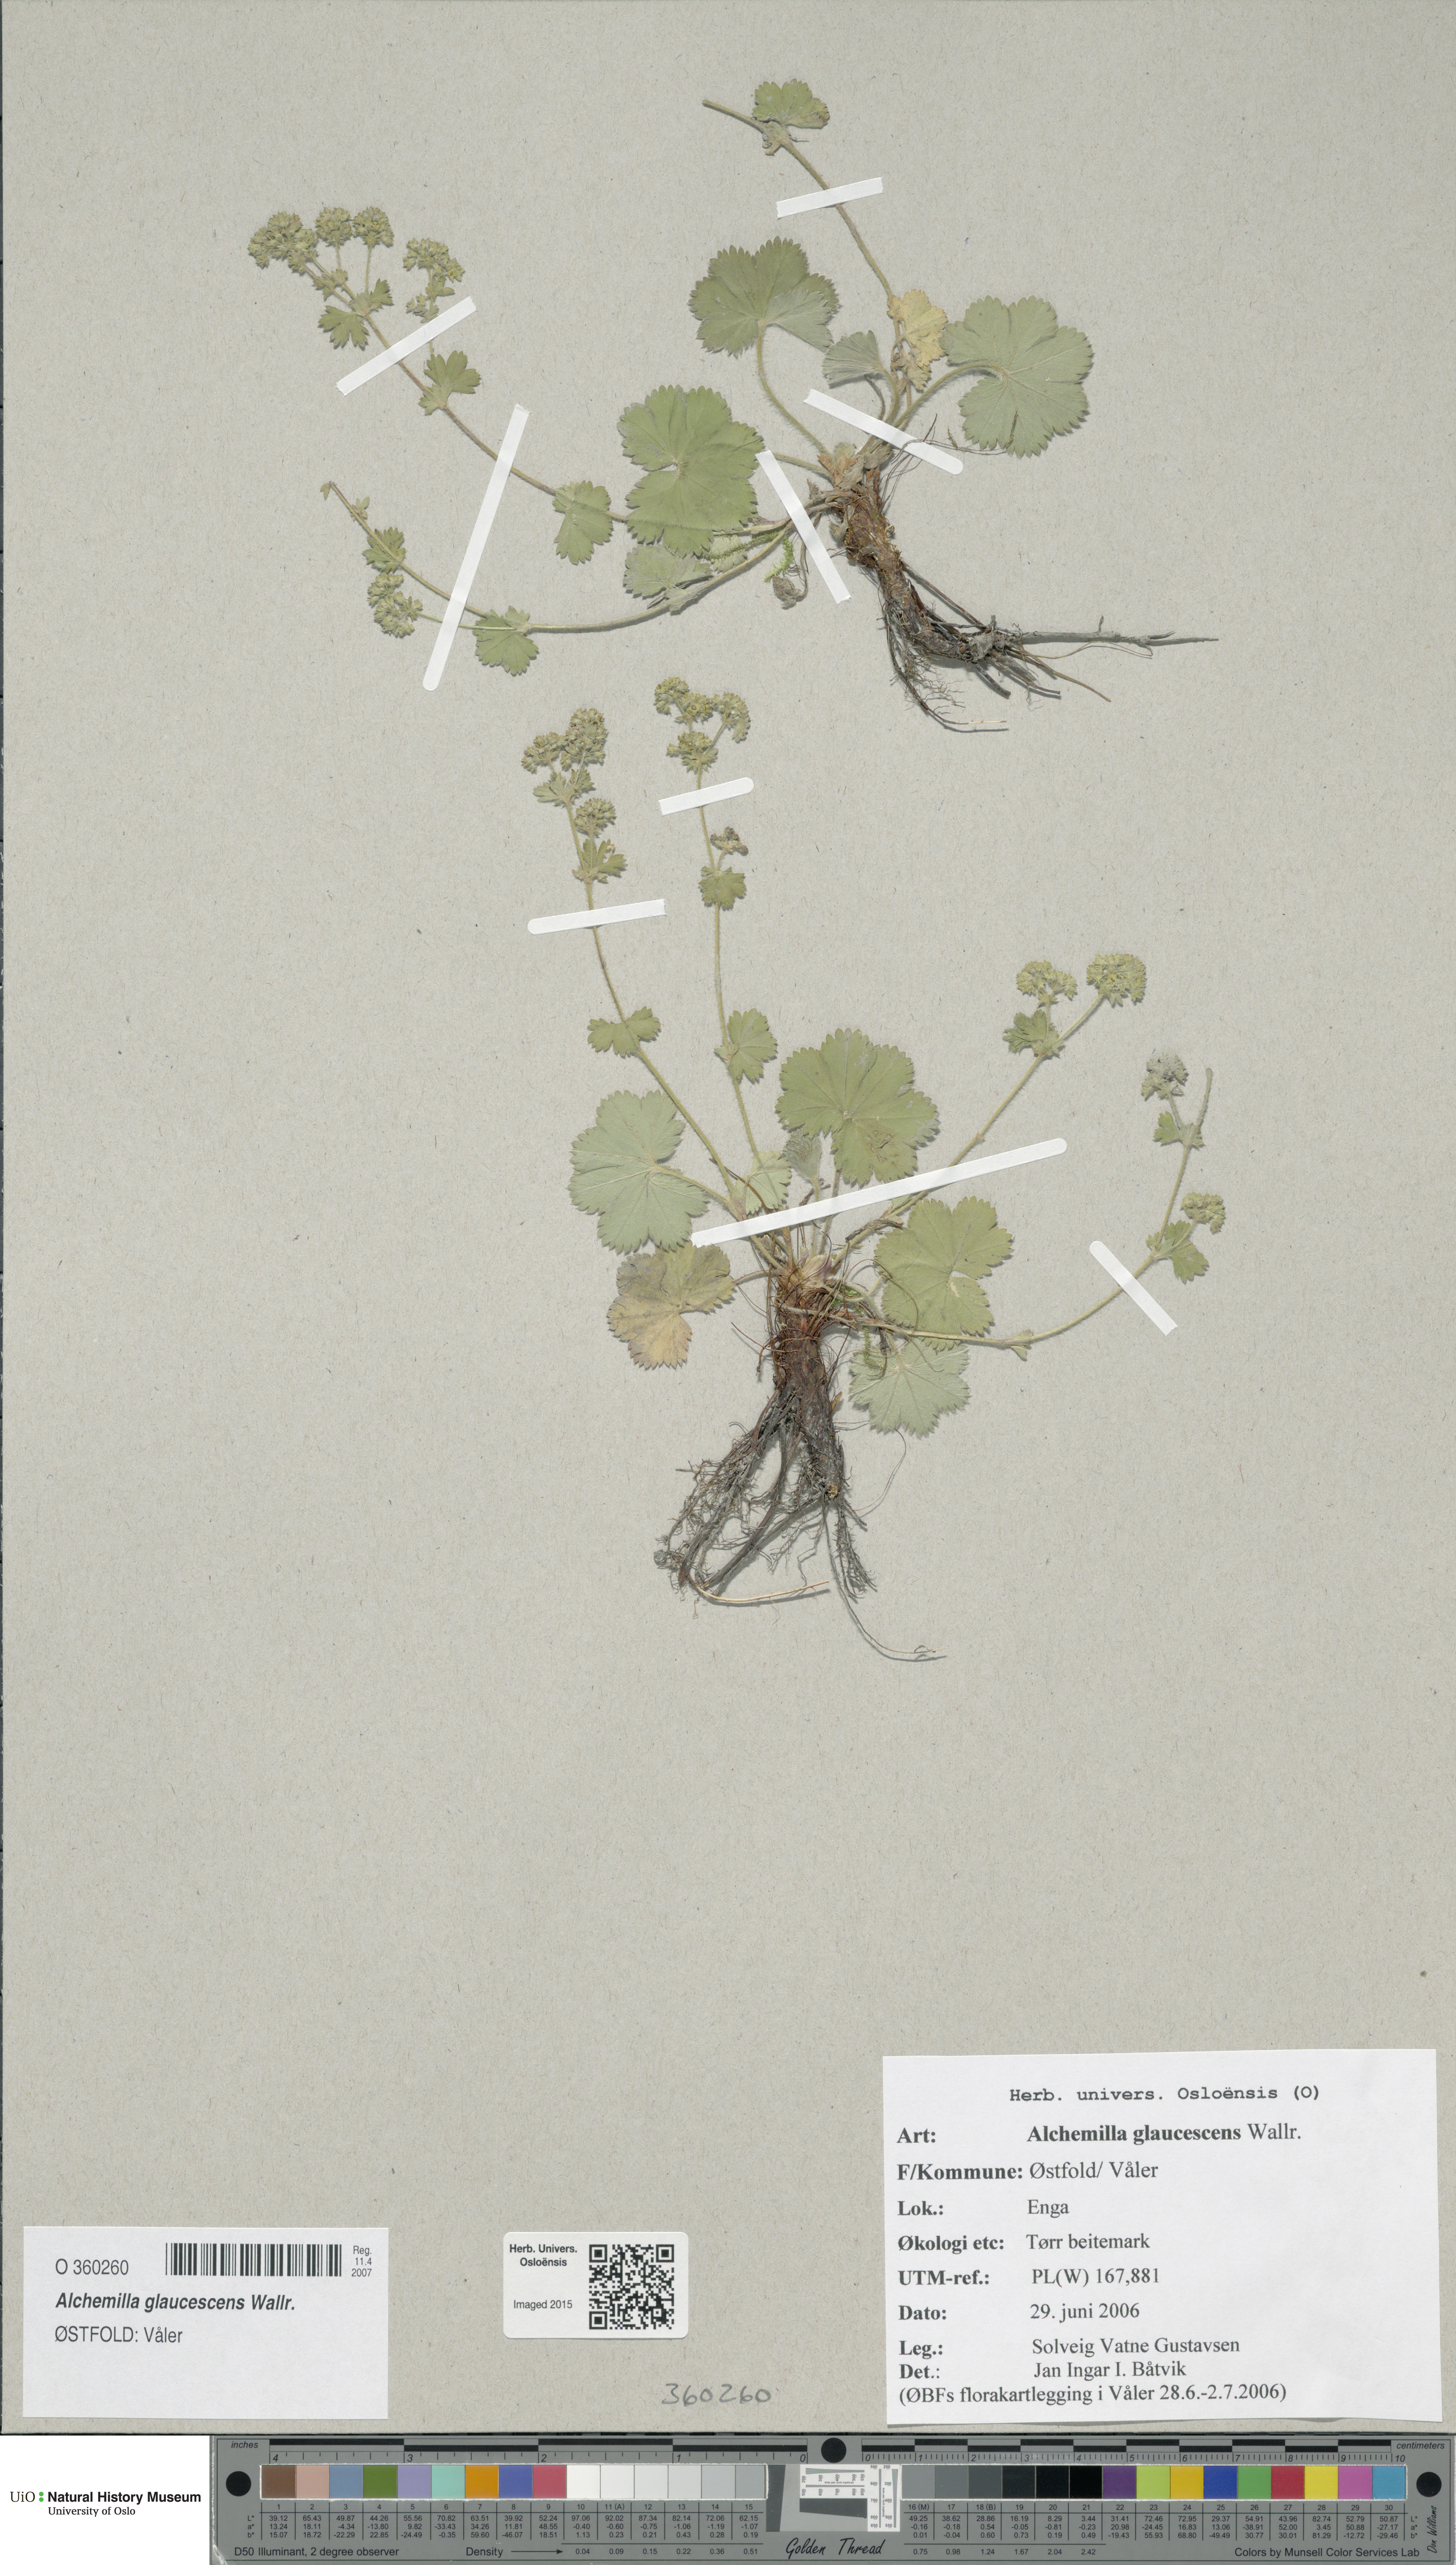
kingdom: Plantae
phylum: Tracheophyta
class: Magnoliopsida
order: Rosales
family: Rosaceae
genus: Alchemilla
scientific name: Alchemilla glaucescens
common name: Silky lady's mantle
